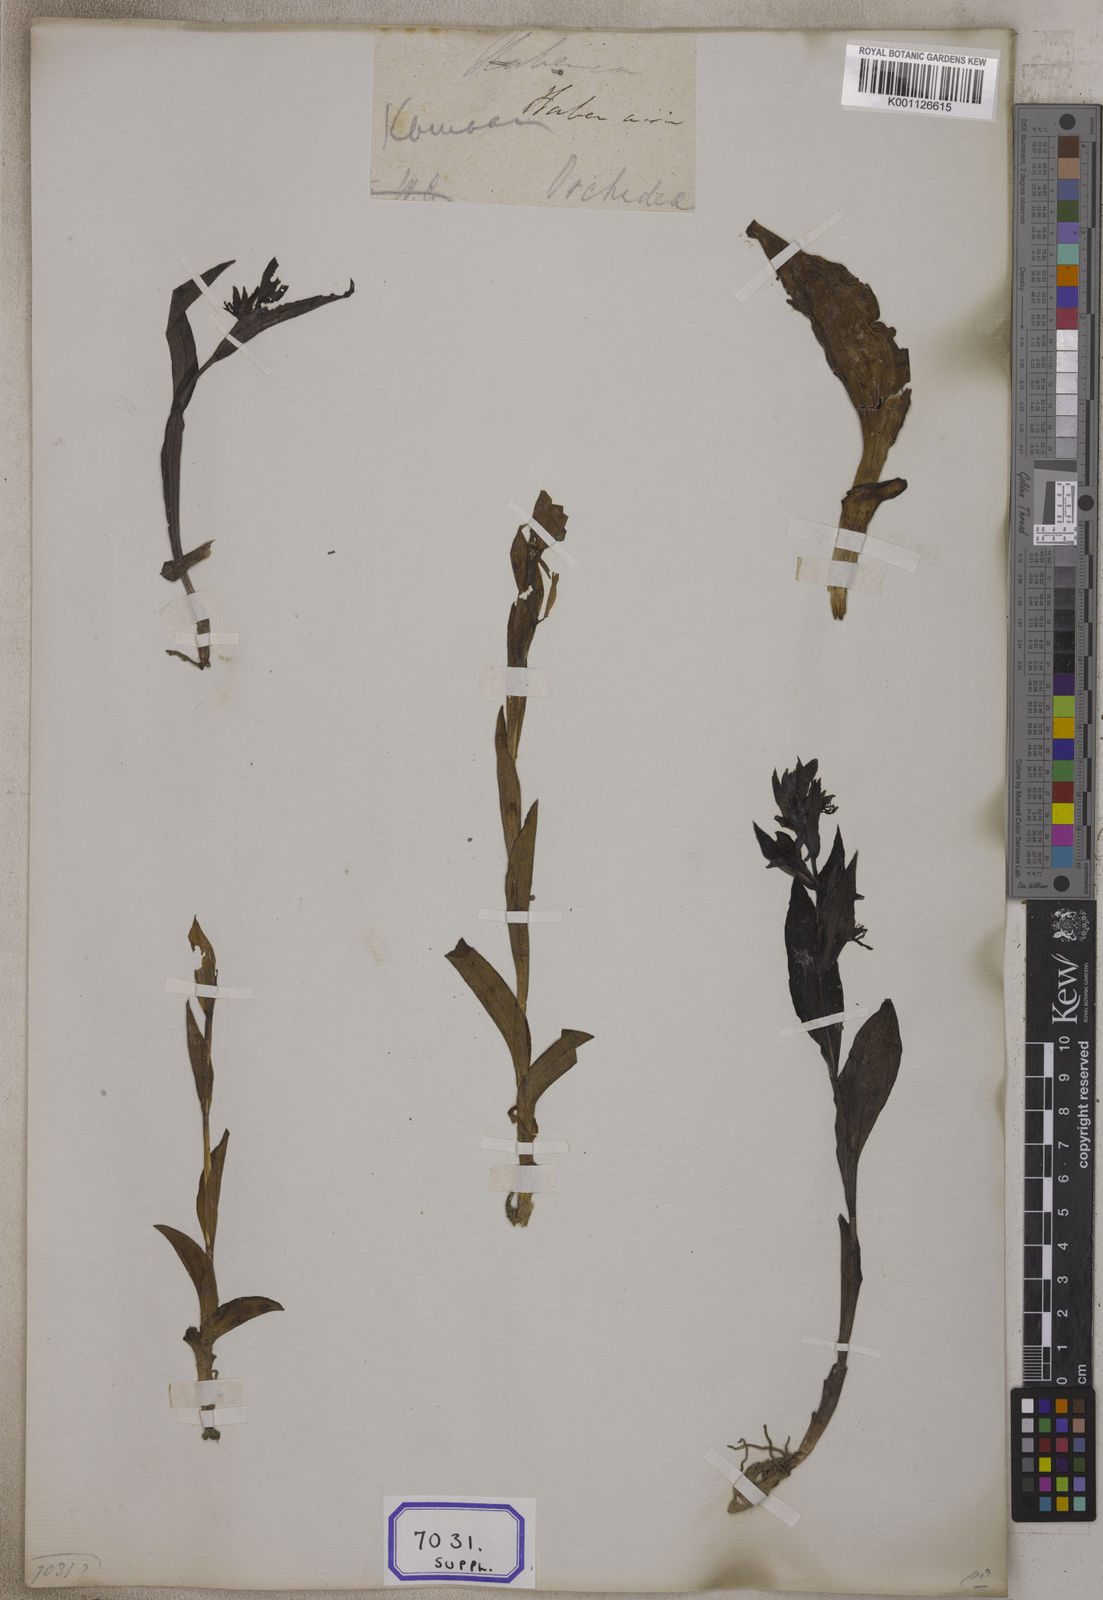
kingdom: Plantae
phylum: Tracheophyta
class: Liliopsida
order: Asparagales
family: Orchidaceae
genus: Habenaria
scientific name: Habenaria
